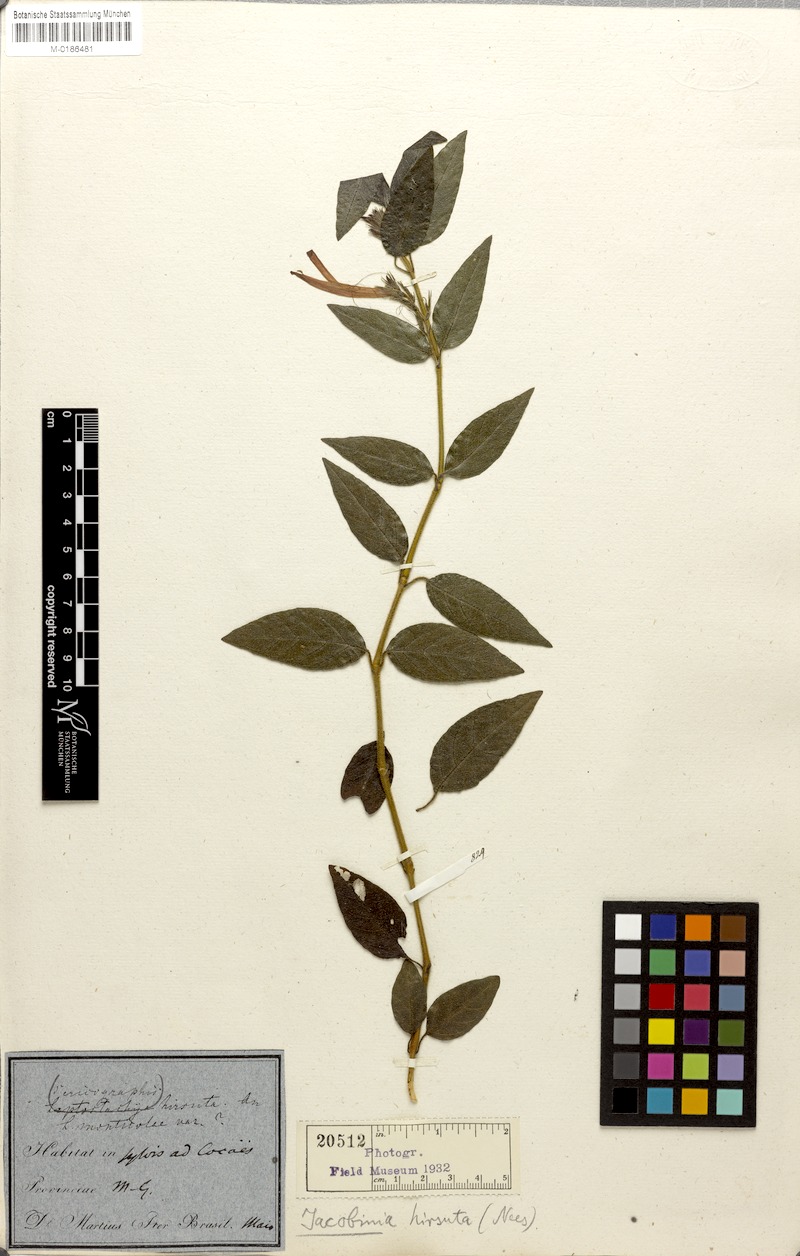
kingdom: Plantae
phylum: Tracheophyta
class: Magnoliopsida
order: Lamiales
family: Acanthaceae
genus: Justicia
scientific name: Justicia Jacobinia hirsuta
